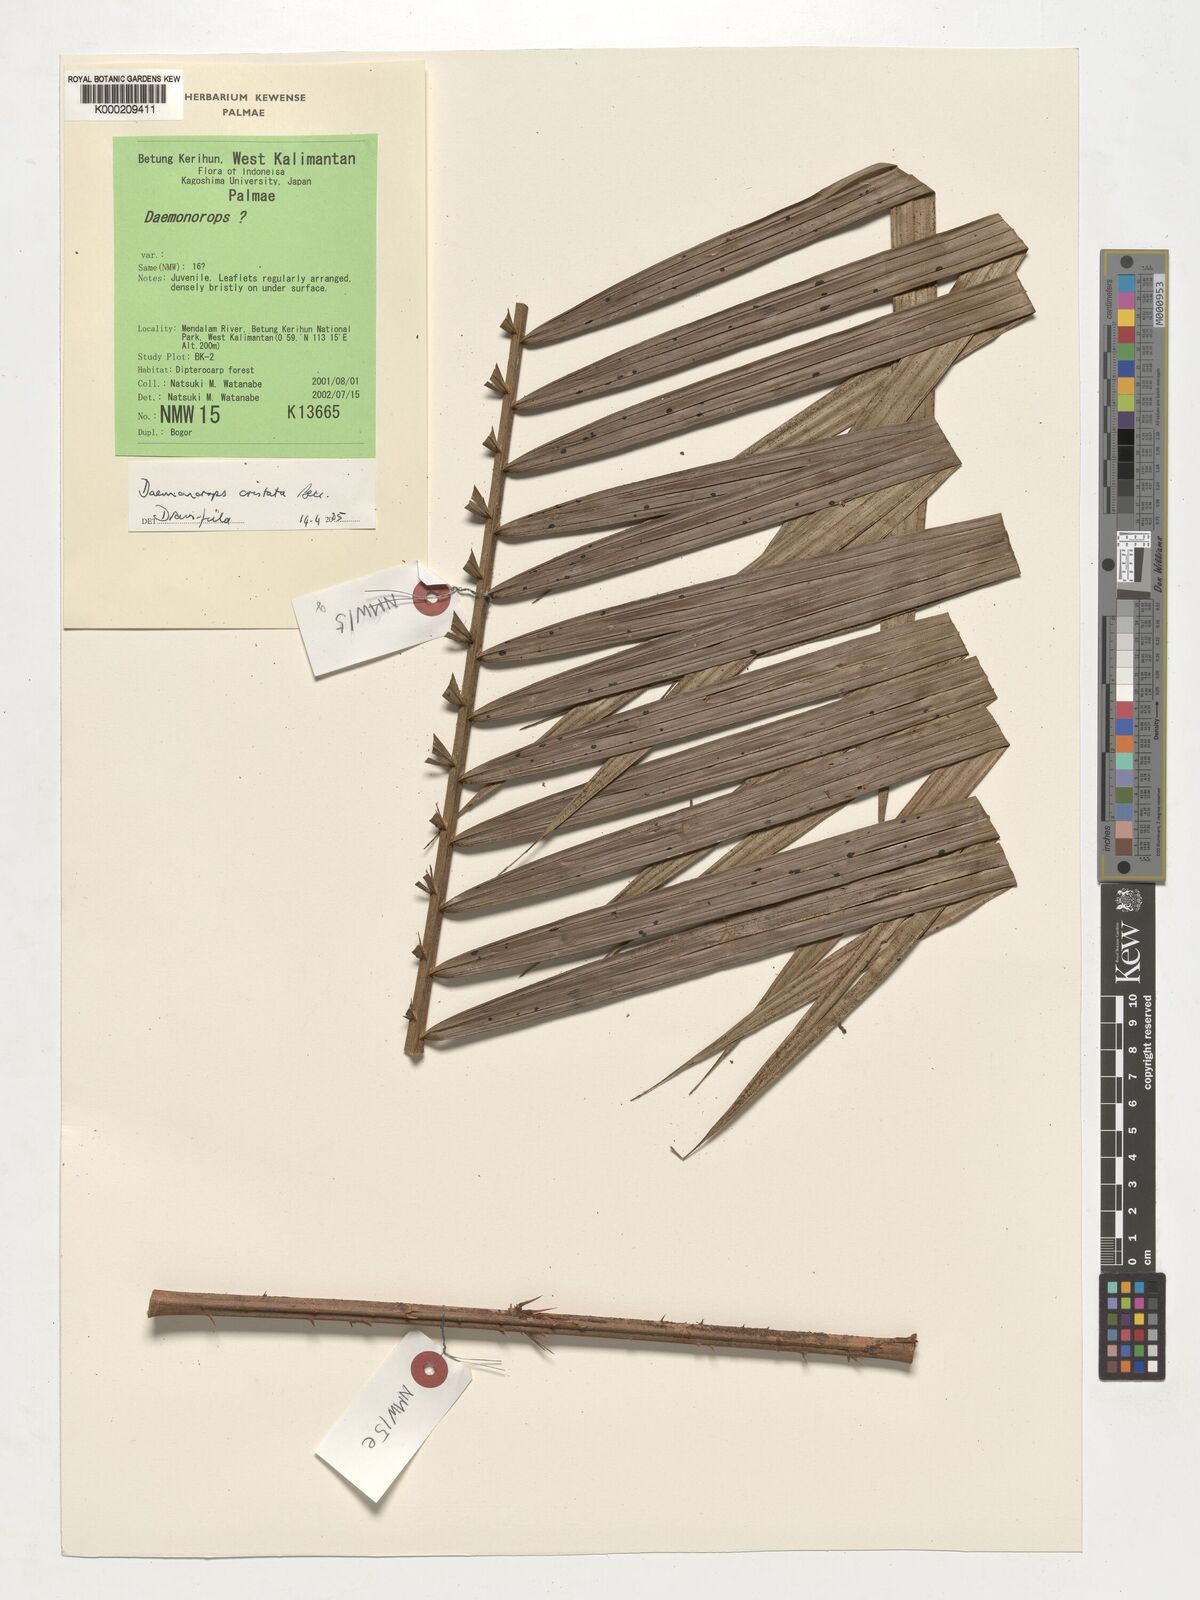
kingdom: Plantae
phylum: Tracheophyta
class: Liliopsida
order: Arecales
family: Arecaceae
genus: Calamus
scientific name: Calamus cristatus
